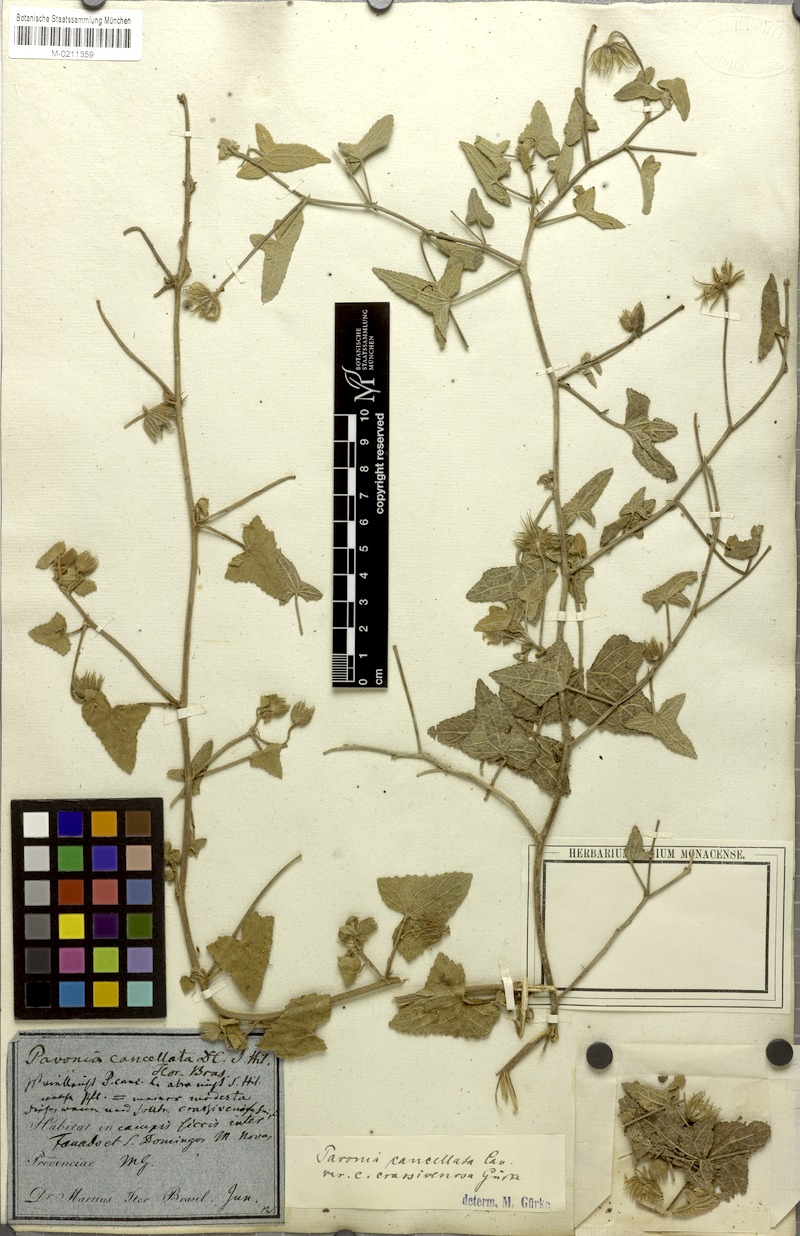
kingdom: Plantae
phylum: Tracheophyta
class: Magnoliopsida
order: Malvales
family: Malvaceae
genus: Pavonia
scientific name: Pavonia cancellata
